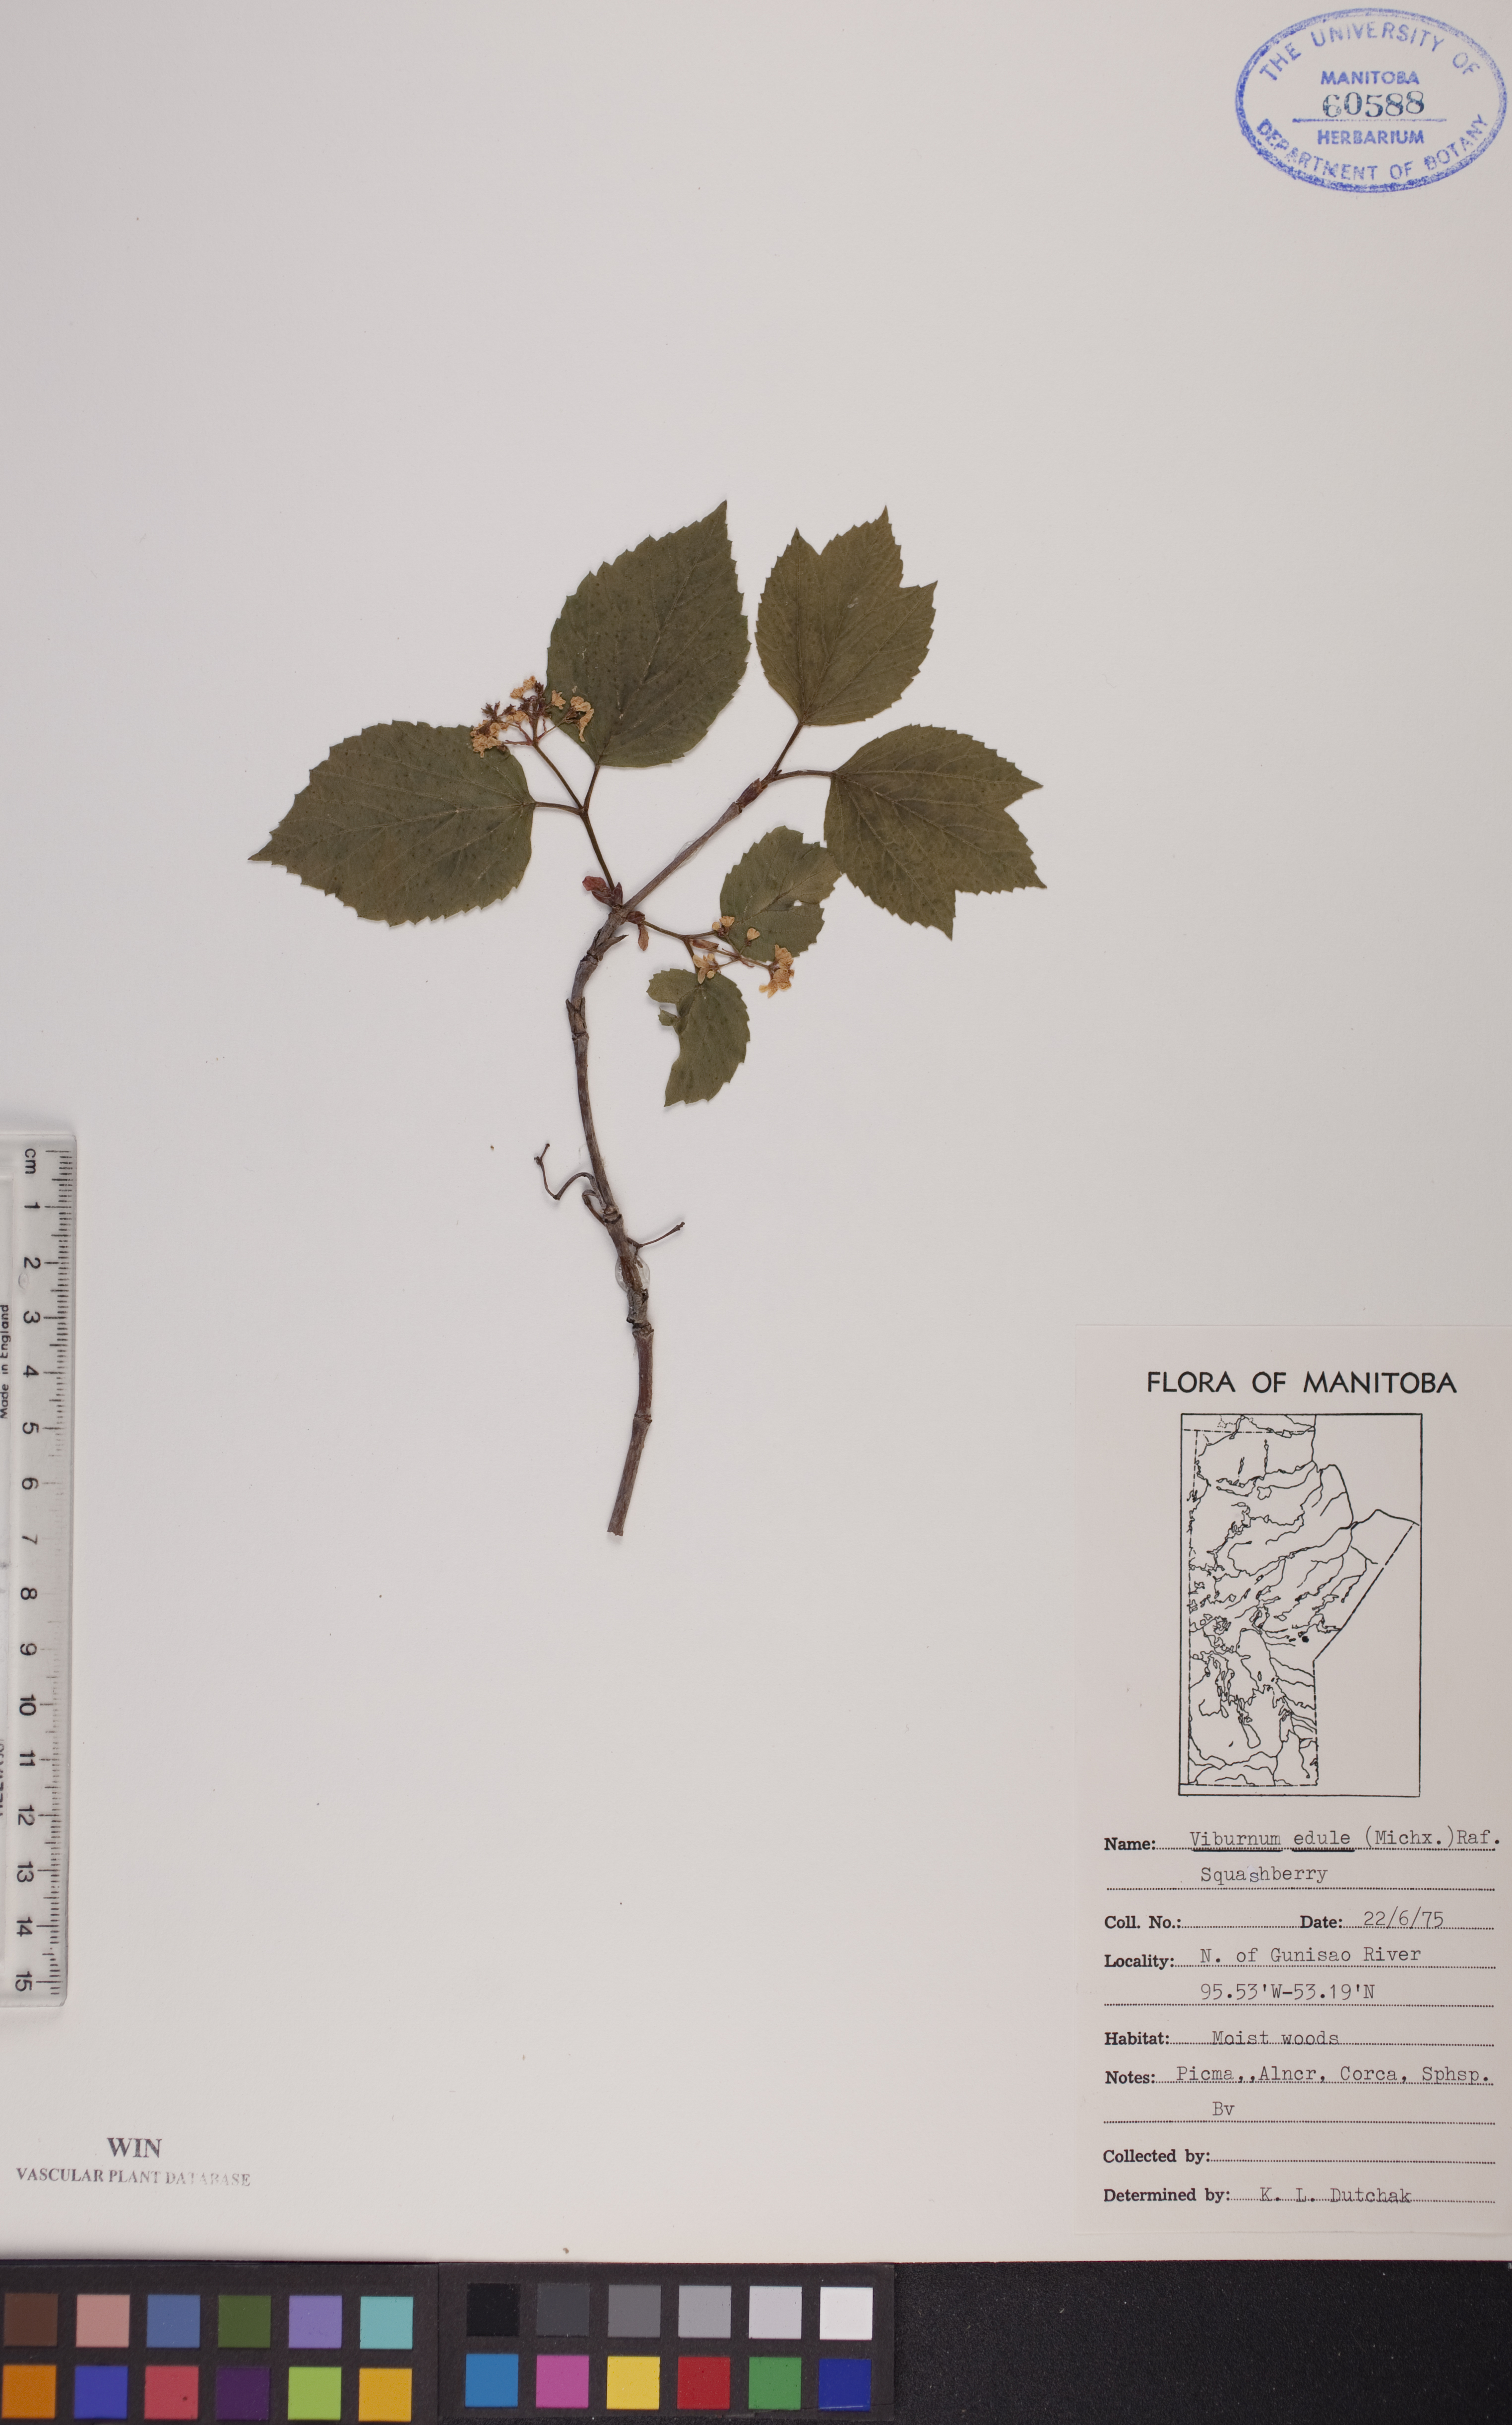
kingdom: Plantae
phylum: Tracheophyta
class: Magnoliopsida
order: Dipsacales
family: Viburnaceae
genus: Viburnum
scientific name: Viburnum edule
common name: Mooseberry
